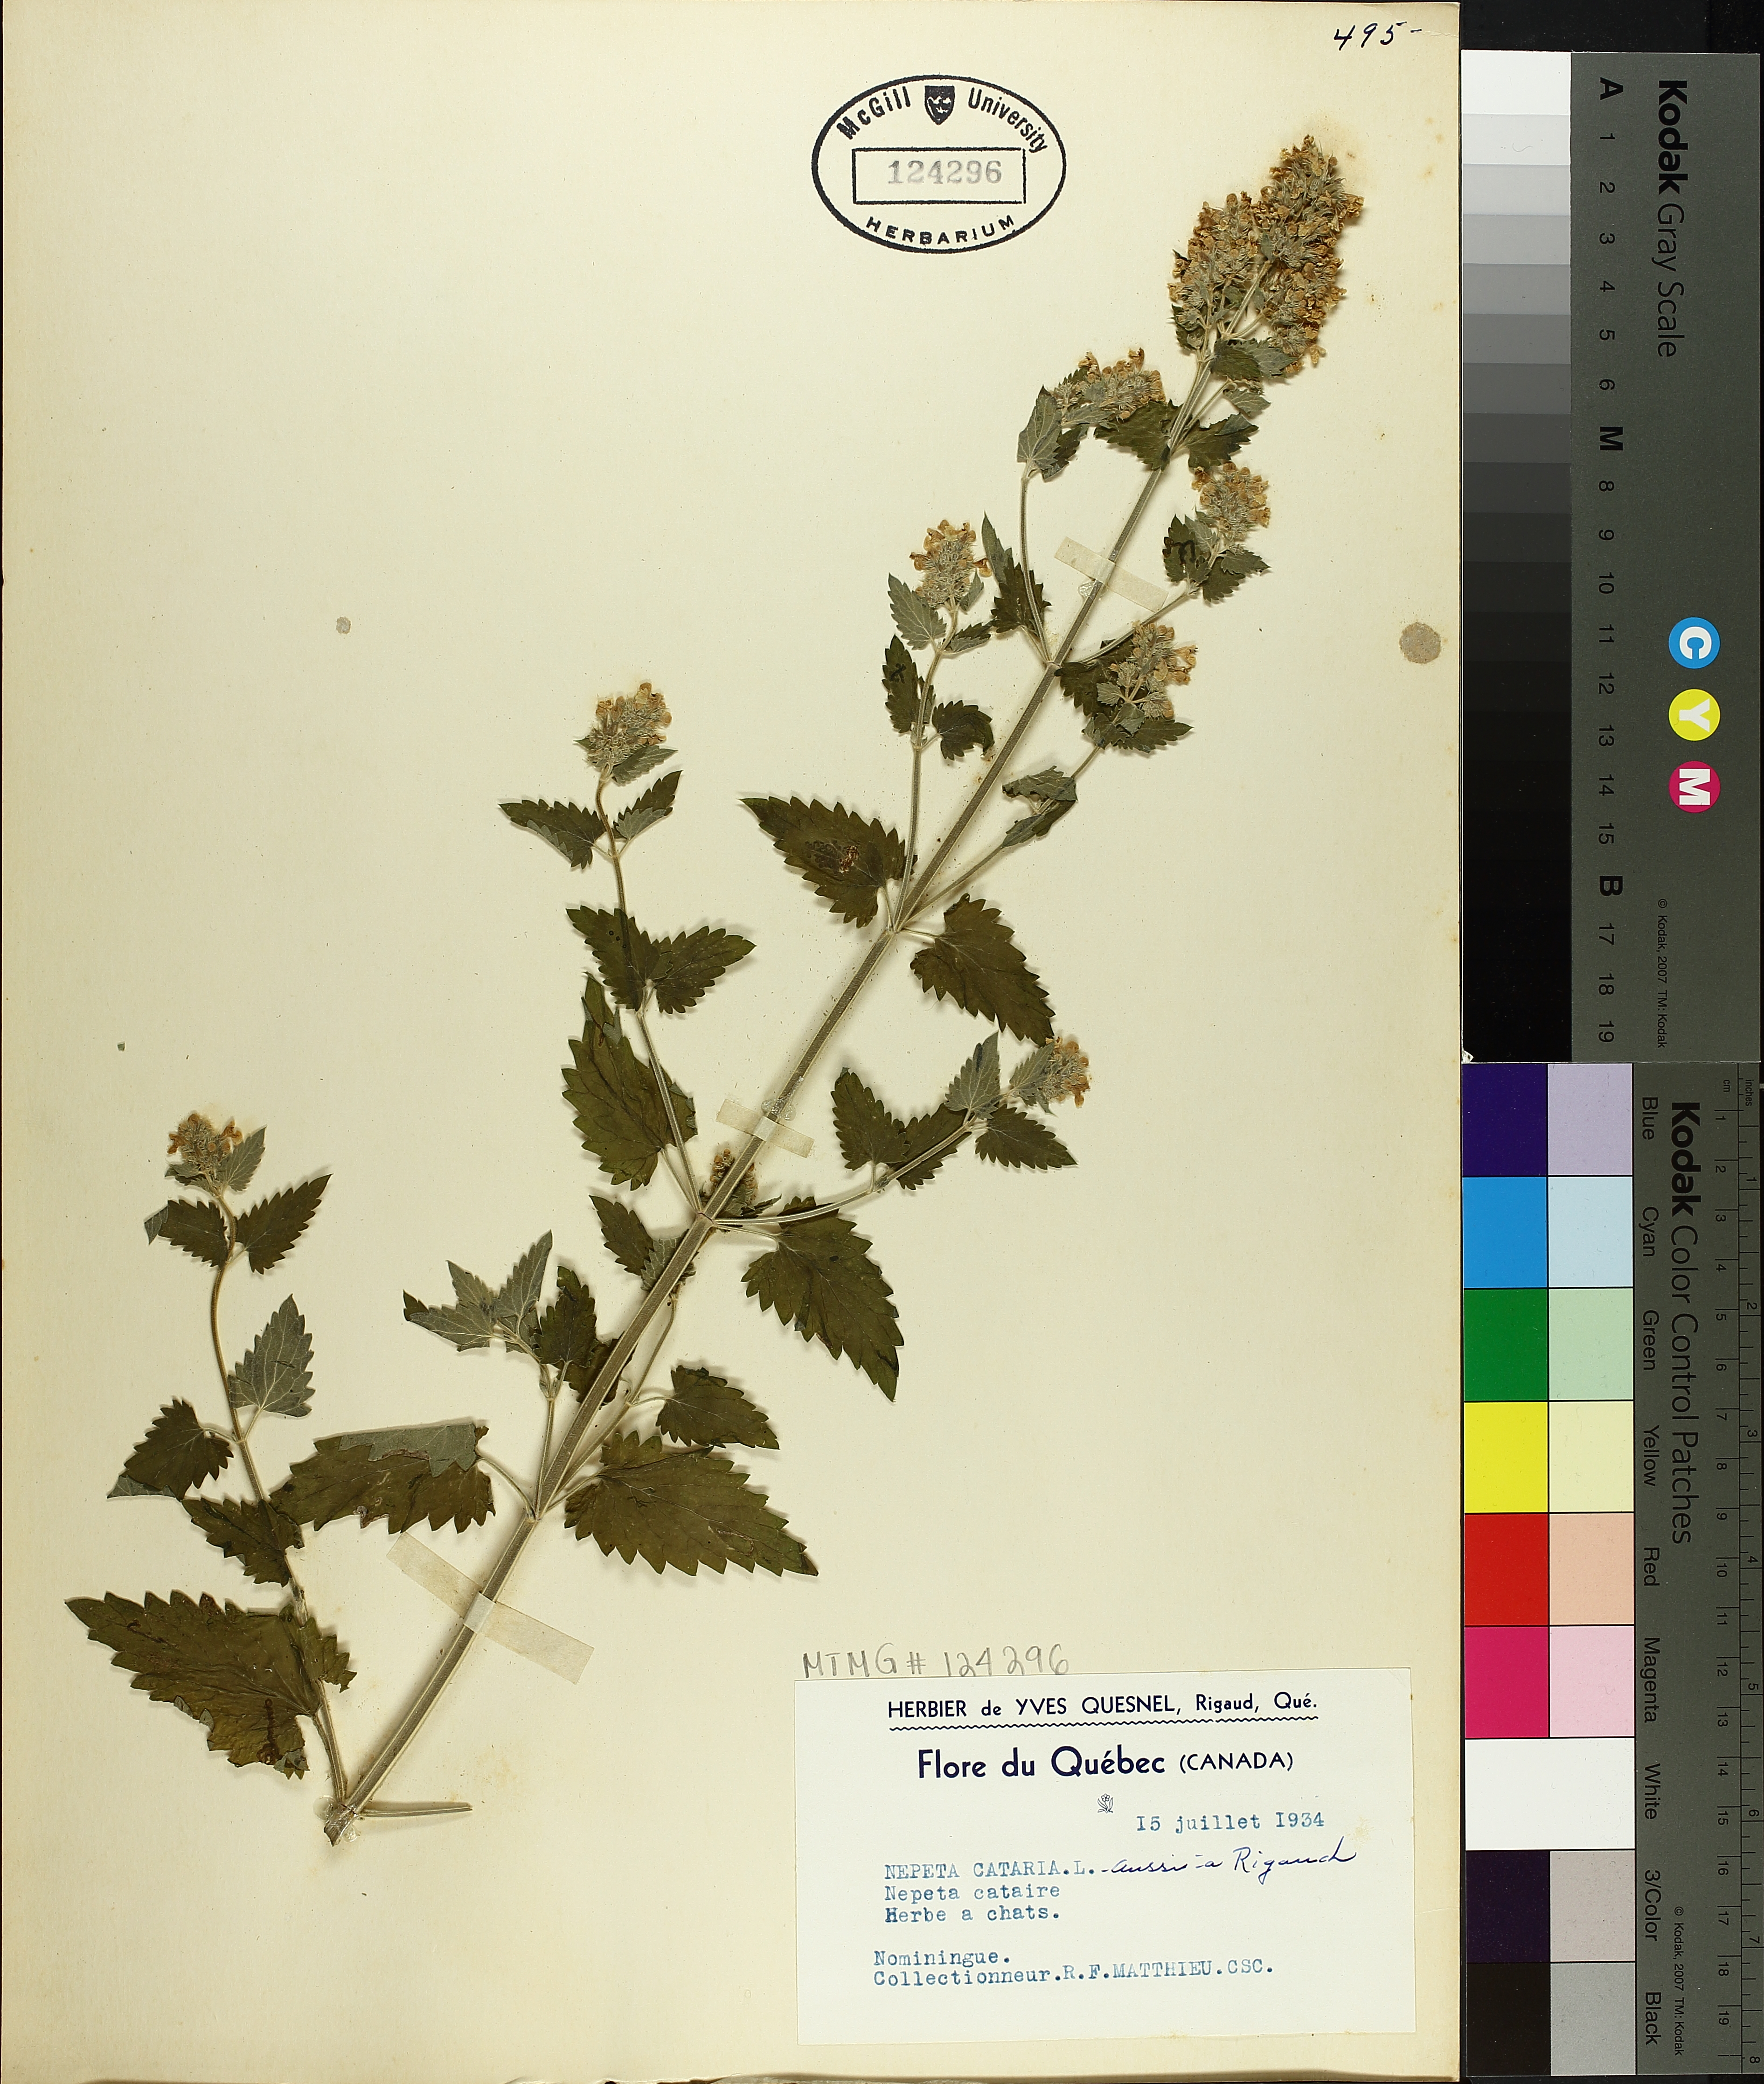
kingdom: Plantae
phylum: Tracheophyta
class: Magnoliopsida
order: Lamiales
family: Lamiaceae
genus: Nepeta
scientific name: Nepeta cataria
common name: Catnip
